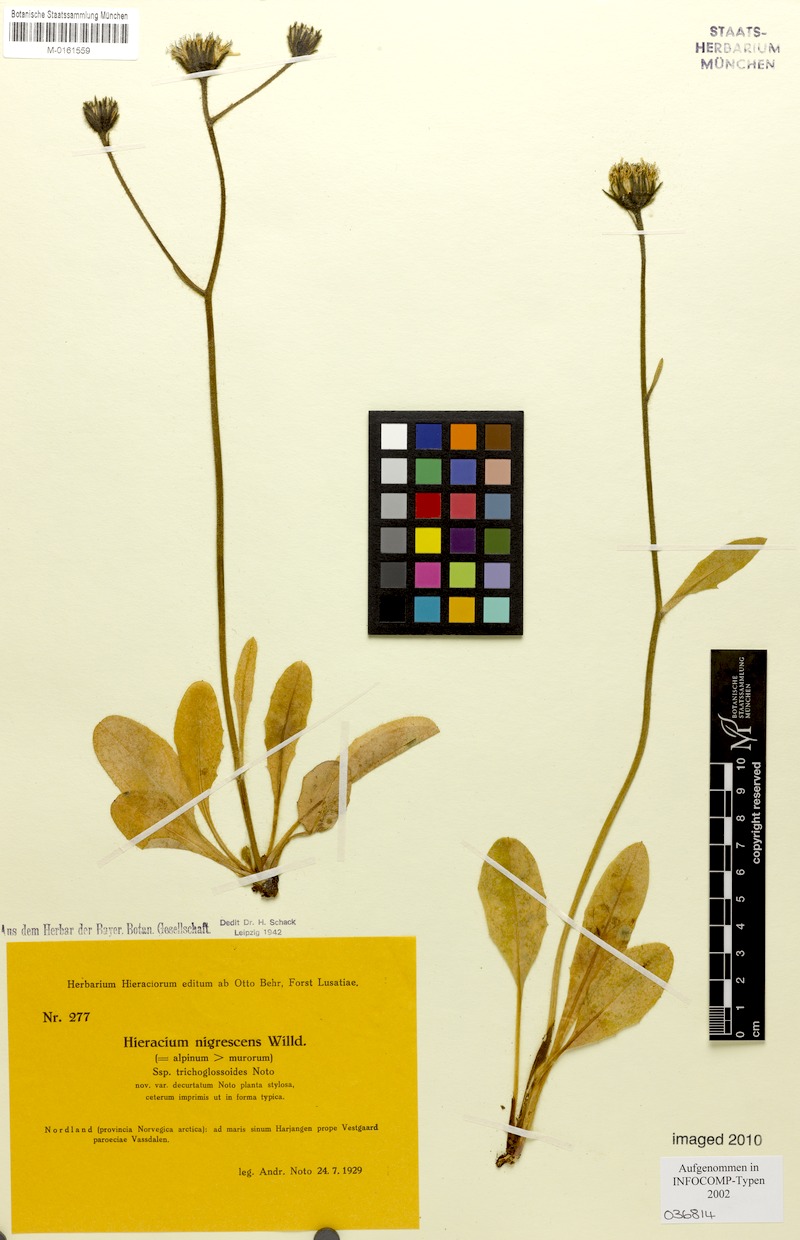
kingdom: Plantae
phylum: Tracheophyta
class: Magnoliopsida
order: Asterales
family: Asteraceae
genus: Hieracium
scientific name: Hieracium nigrescens
